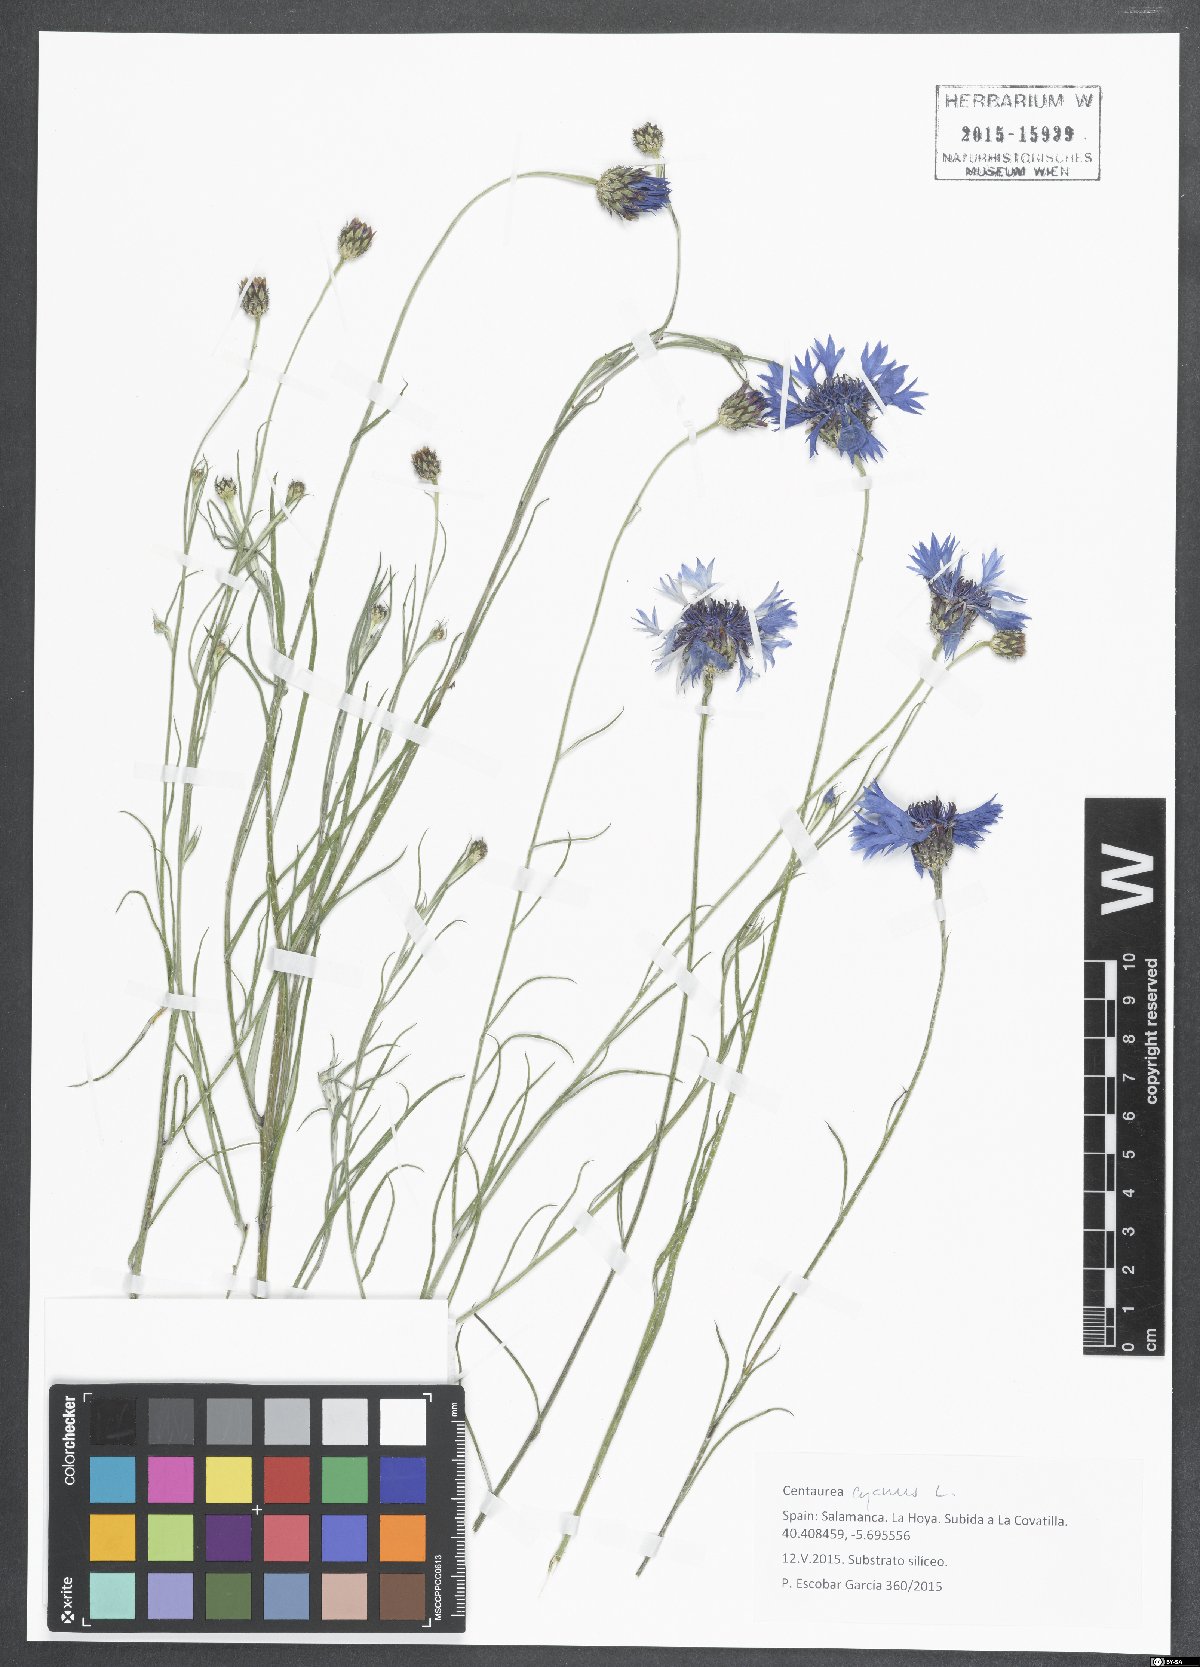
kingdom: Plantae
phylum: Tracheophyta
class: Magnoliopsida
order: Asterales
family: Asteraceae
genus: Centaurea
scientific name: Centaurea cyanus
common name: Cornflower
